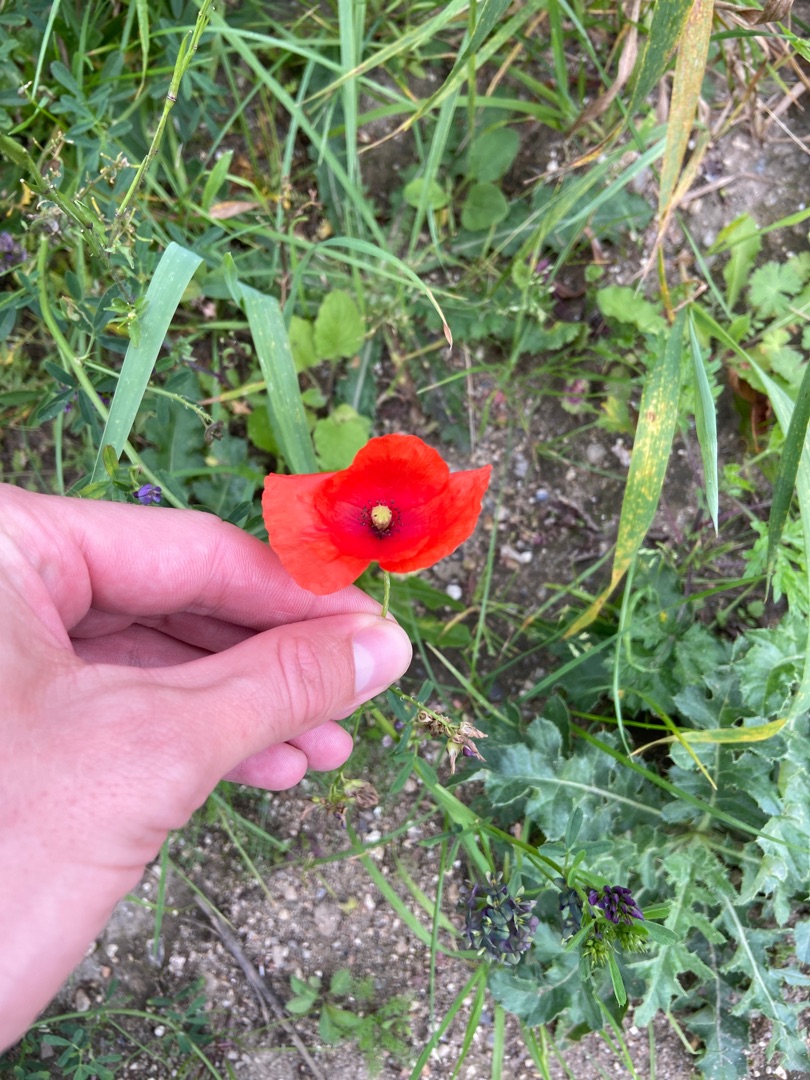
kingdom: Plantae
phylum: Tracheophyta
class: Magnoliopsida
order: Ranunculales
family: Papaveraceae
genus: Papaver
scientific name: Papaver rhoeas
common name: Korn-valmue
